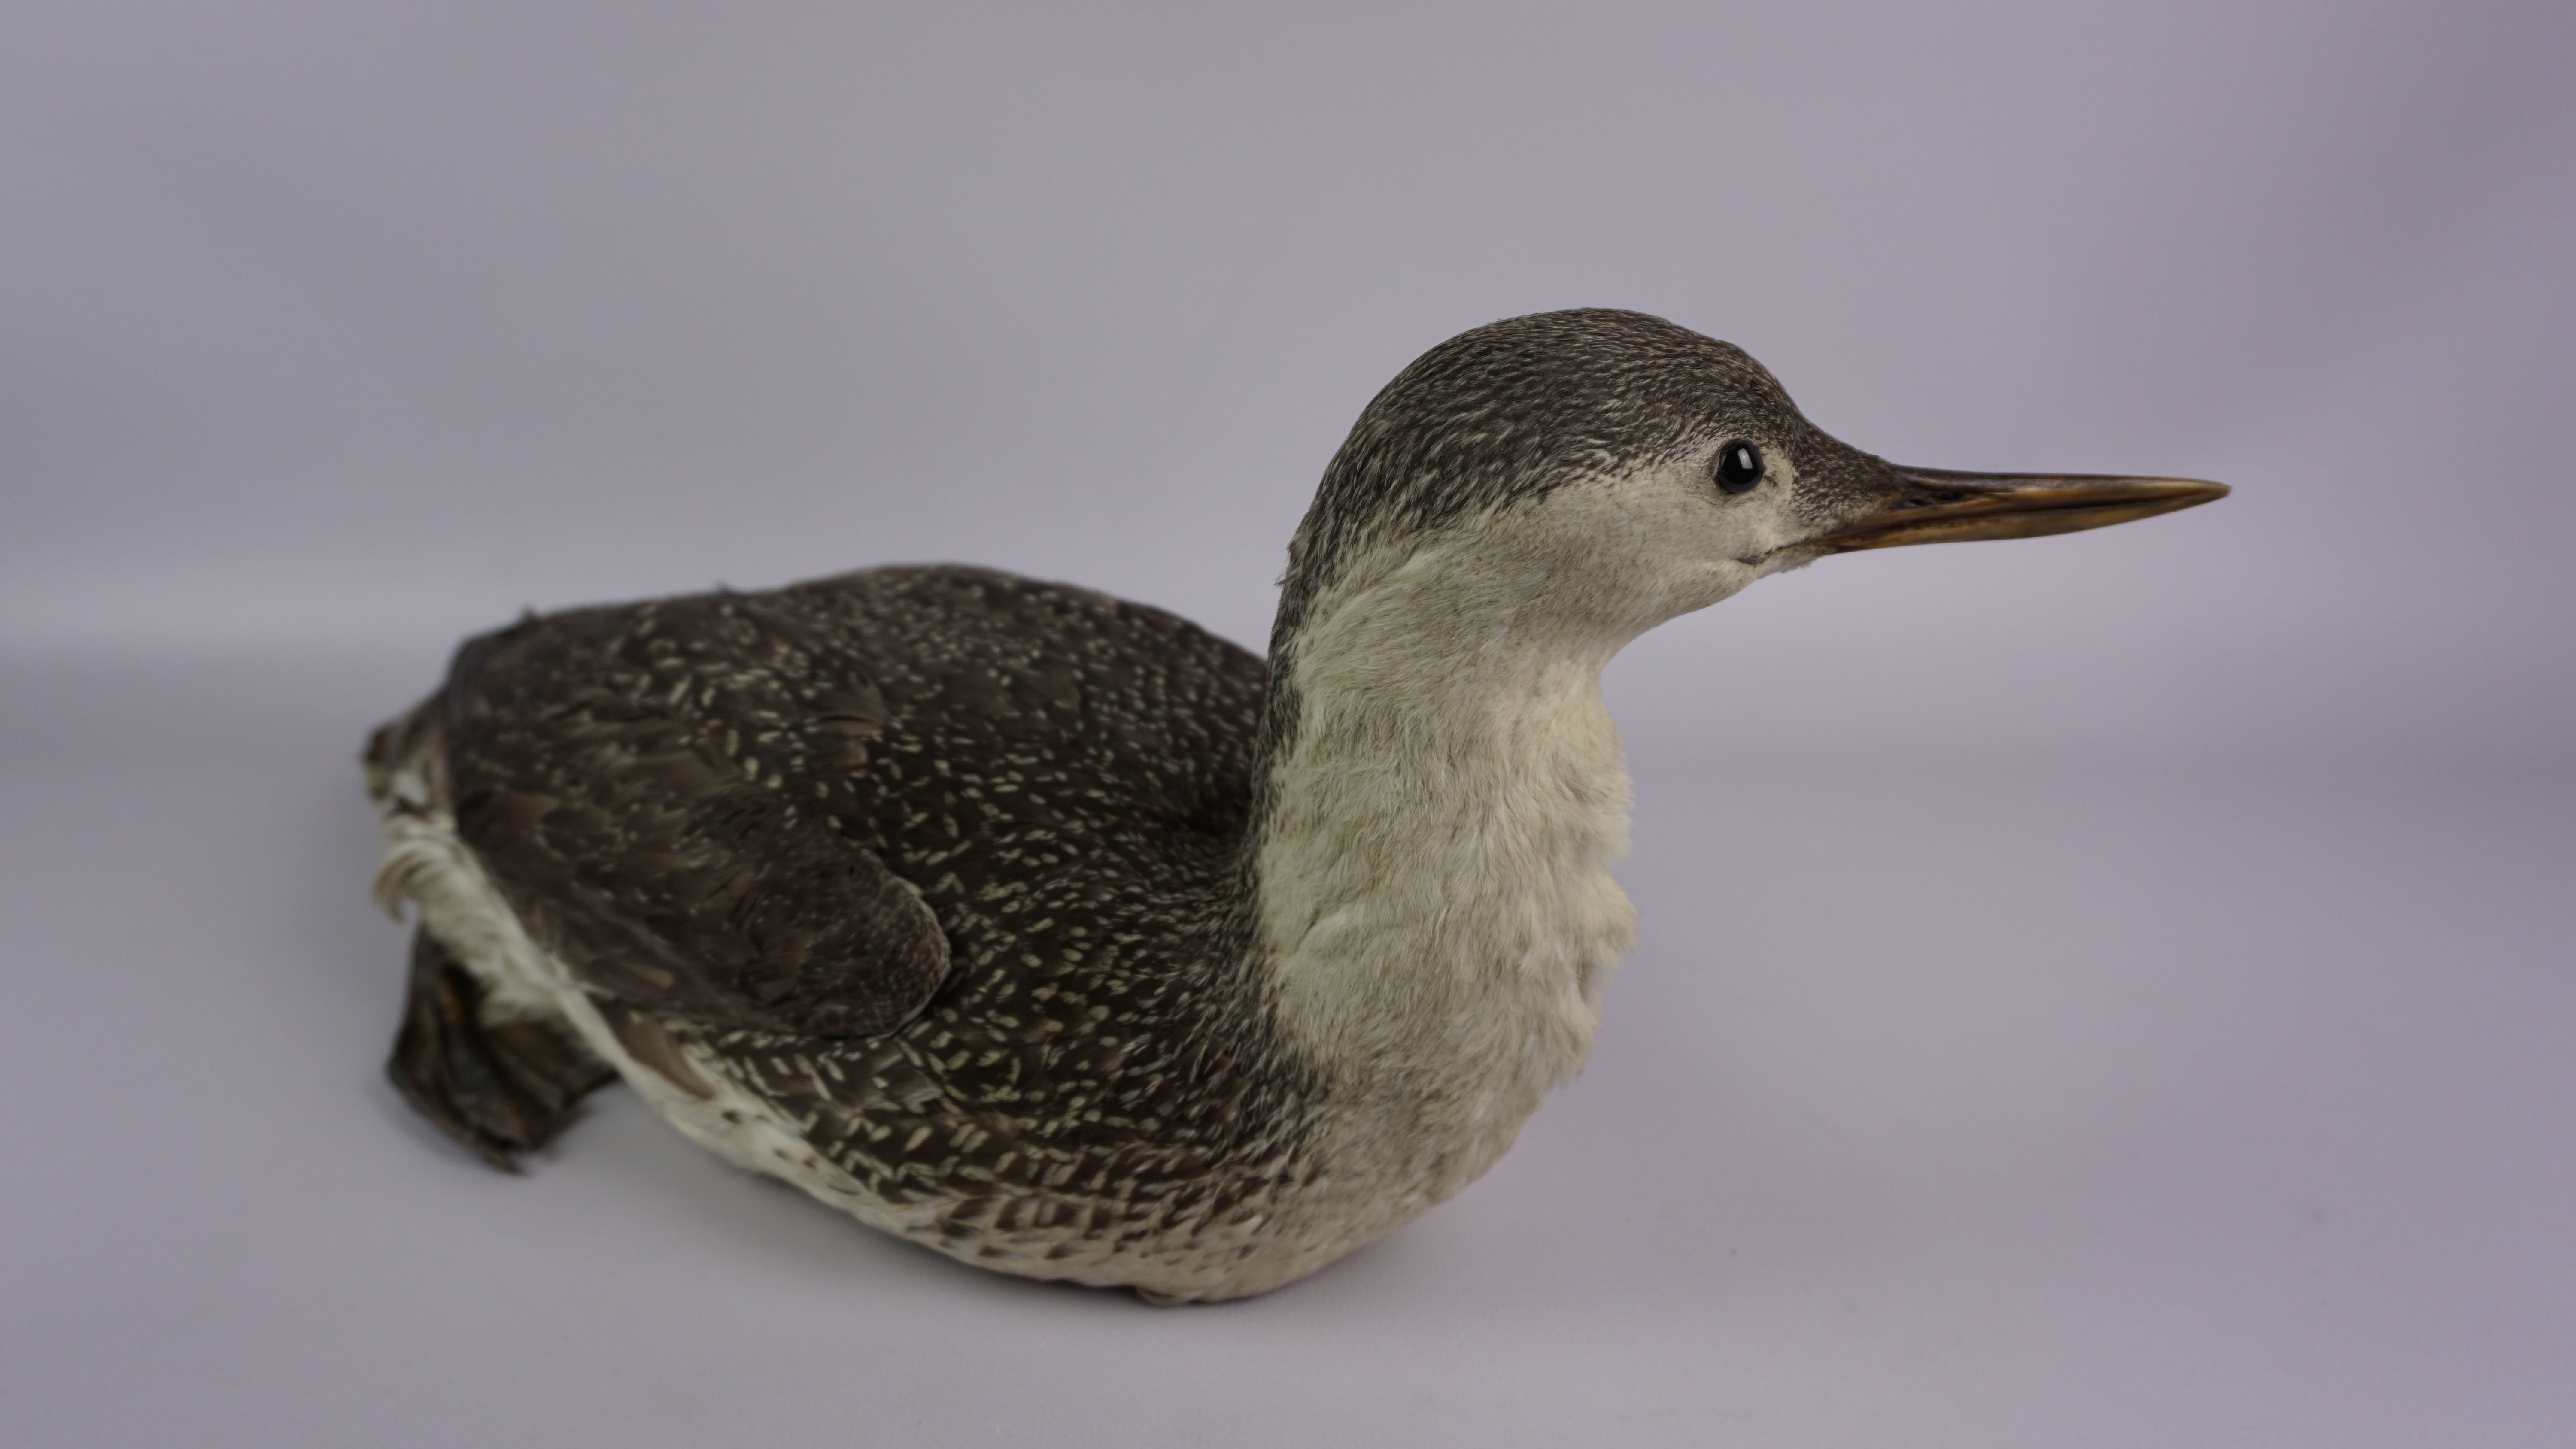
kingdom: Animalia
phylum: Chordata
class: Aves
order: Gaviiformes
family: Gaviidae
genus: Gavia
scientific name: Gavia stellata
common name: Red-throated loon
